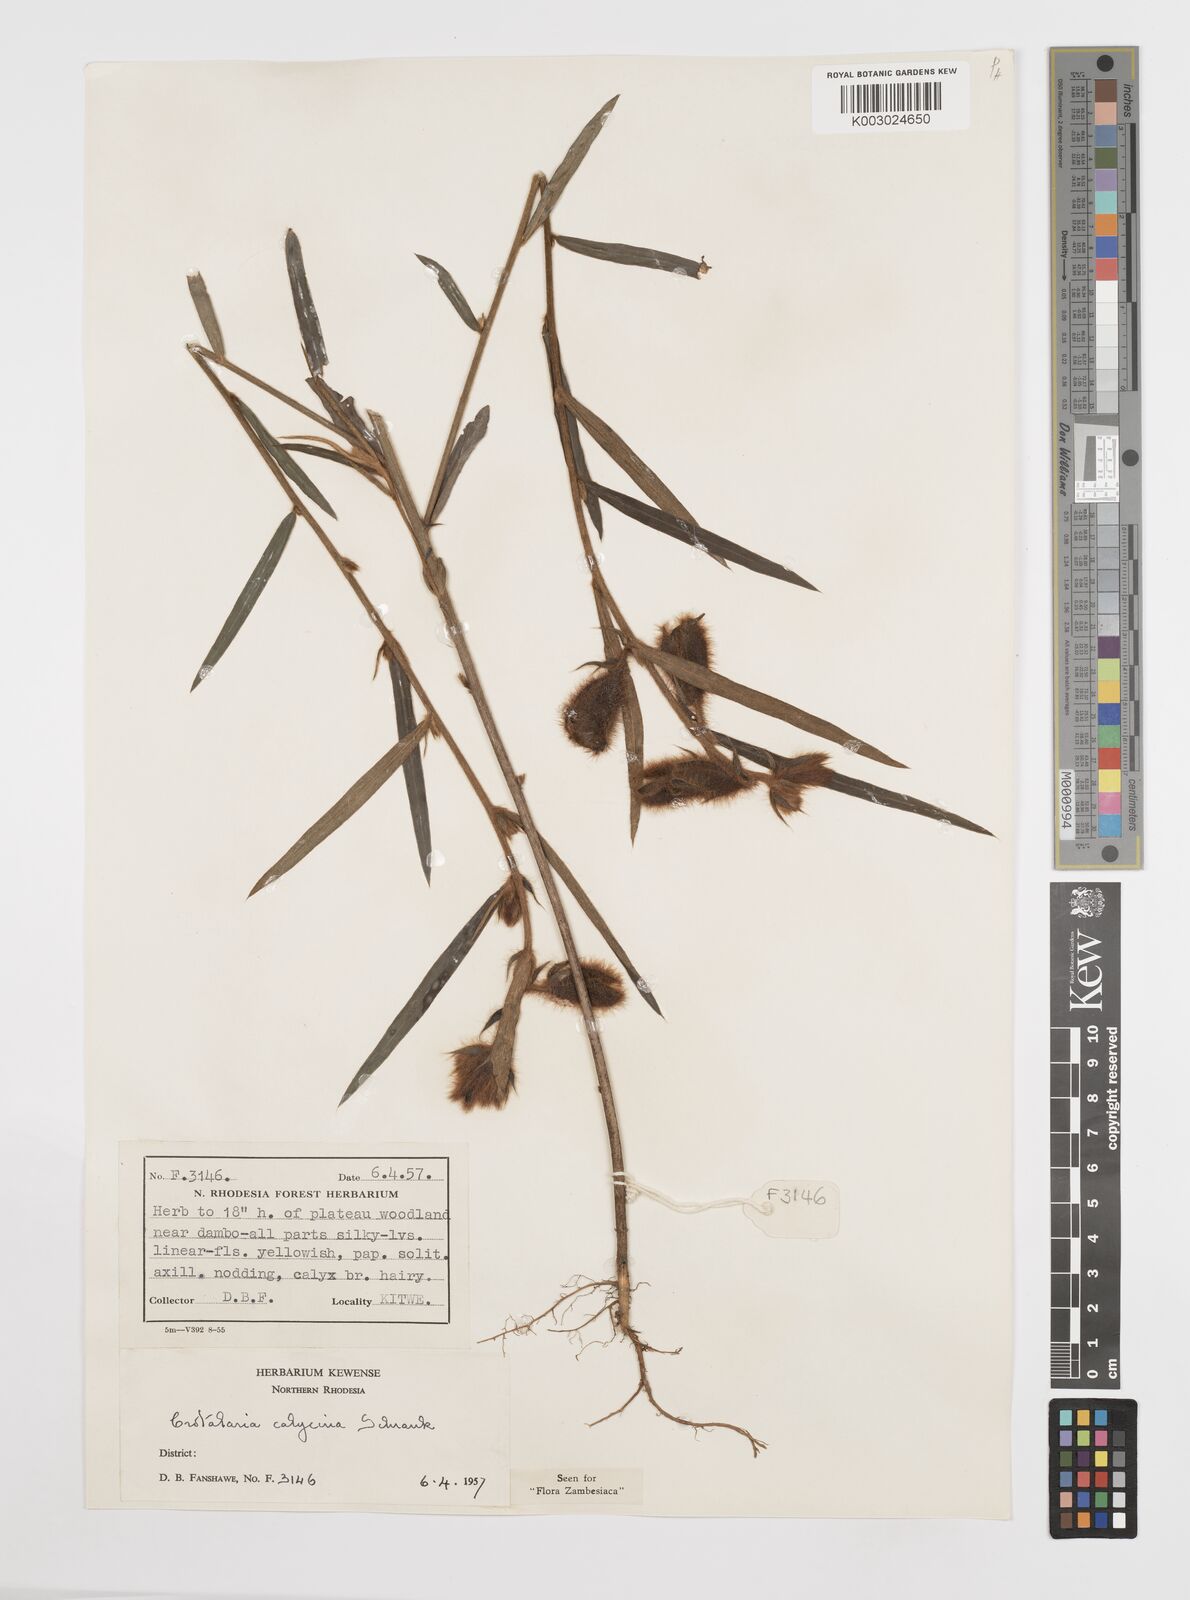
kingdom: Plantae
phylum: Tracheophyta
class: Magnoliopsida
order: Fabales
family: Fabaceae
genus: Crotalaria
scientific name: Crotalaria calycina
